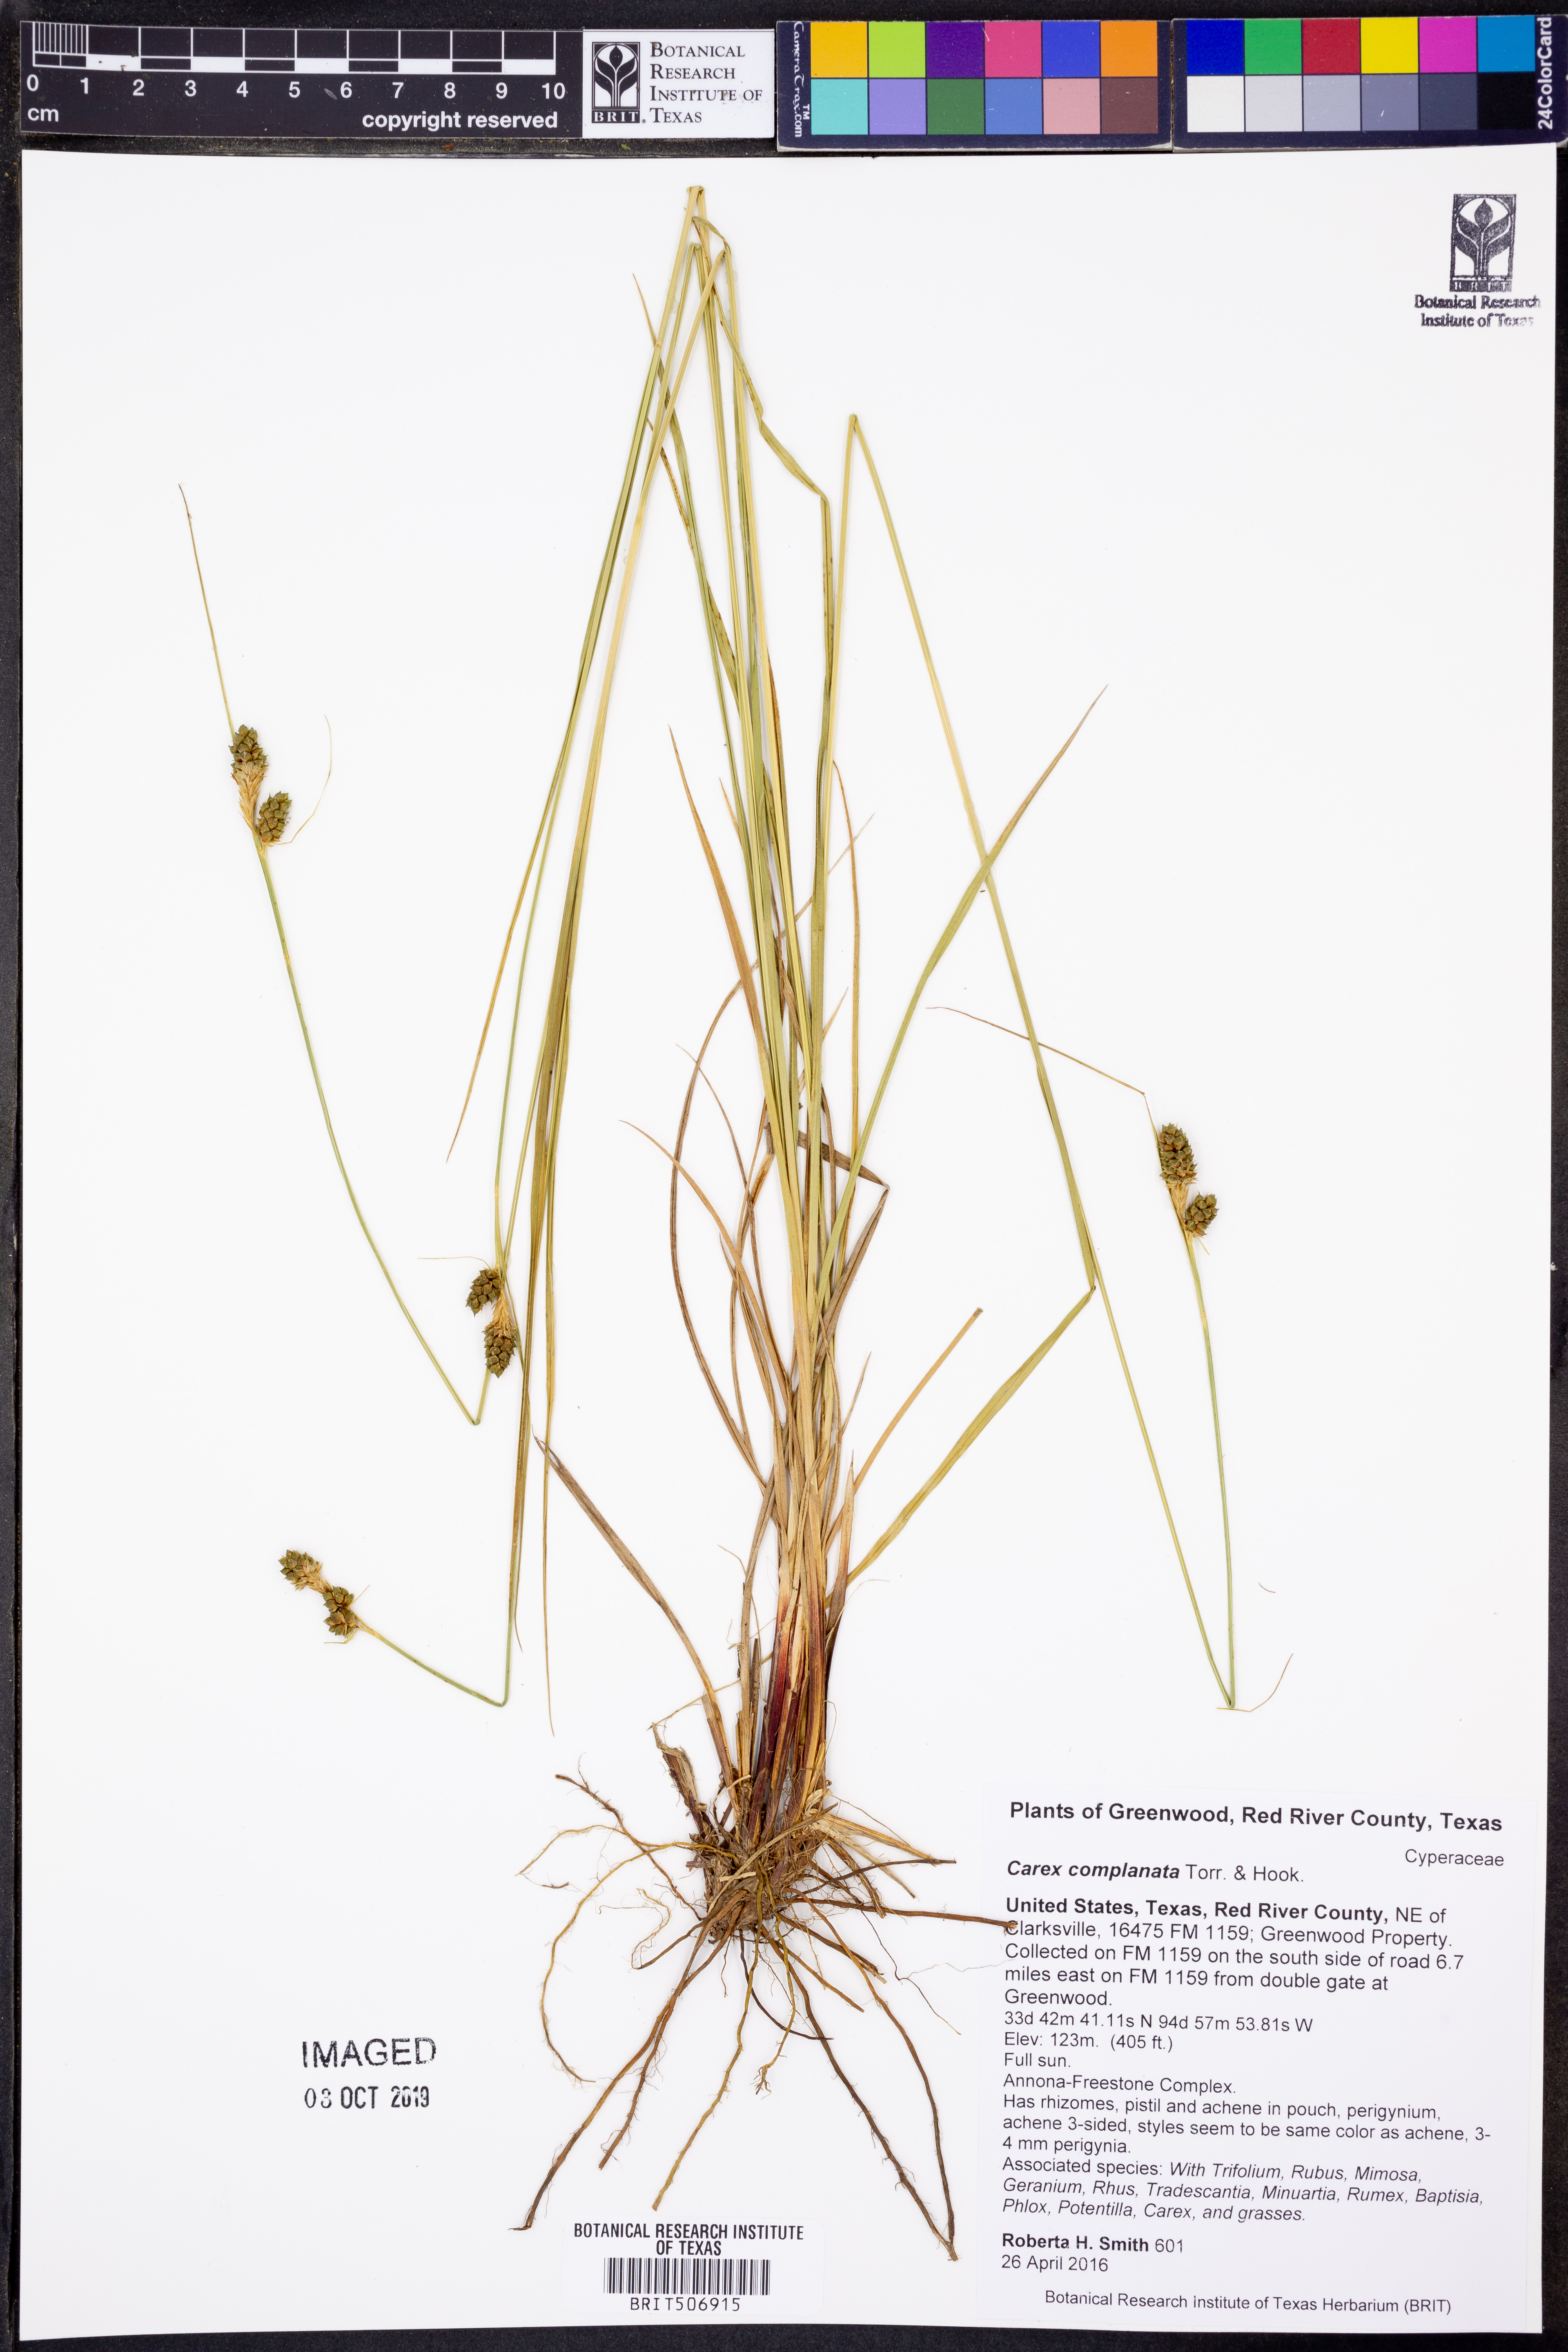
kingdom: Plantae
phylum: Tracheophyta
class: Liliopsida
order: Poales
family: Cyperaceae
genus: Carex
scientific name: Carex complanata
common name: Hirsute sedge
